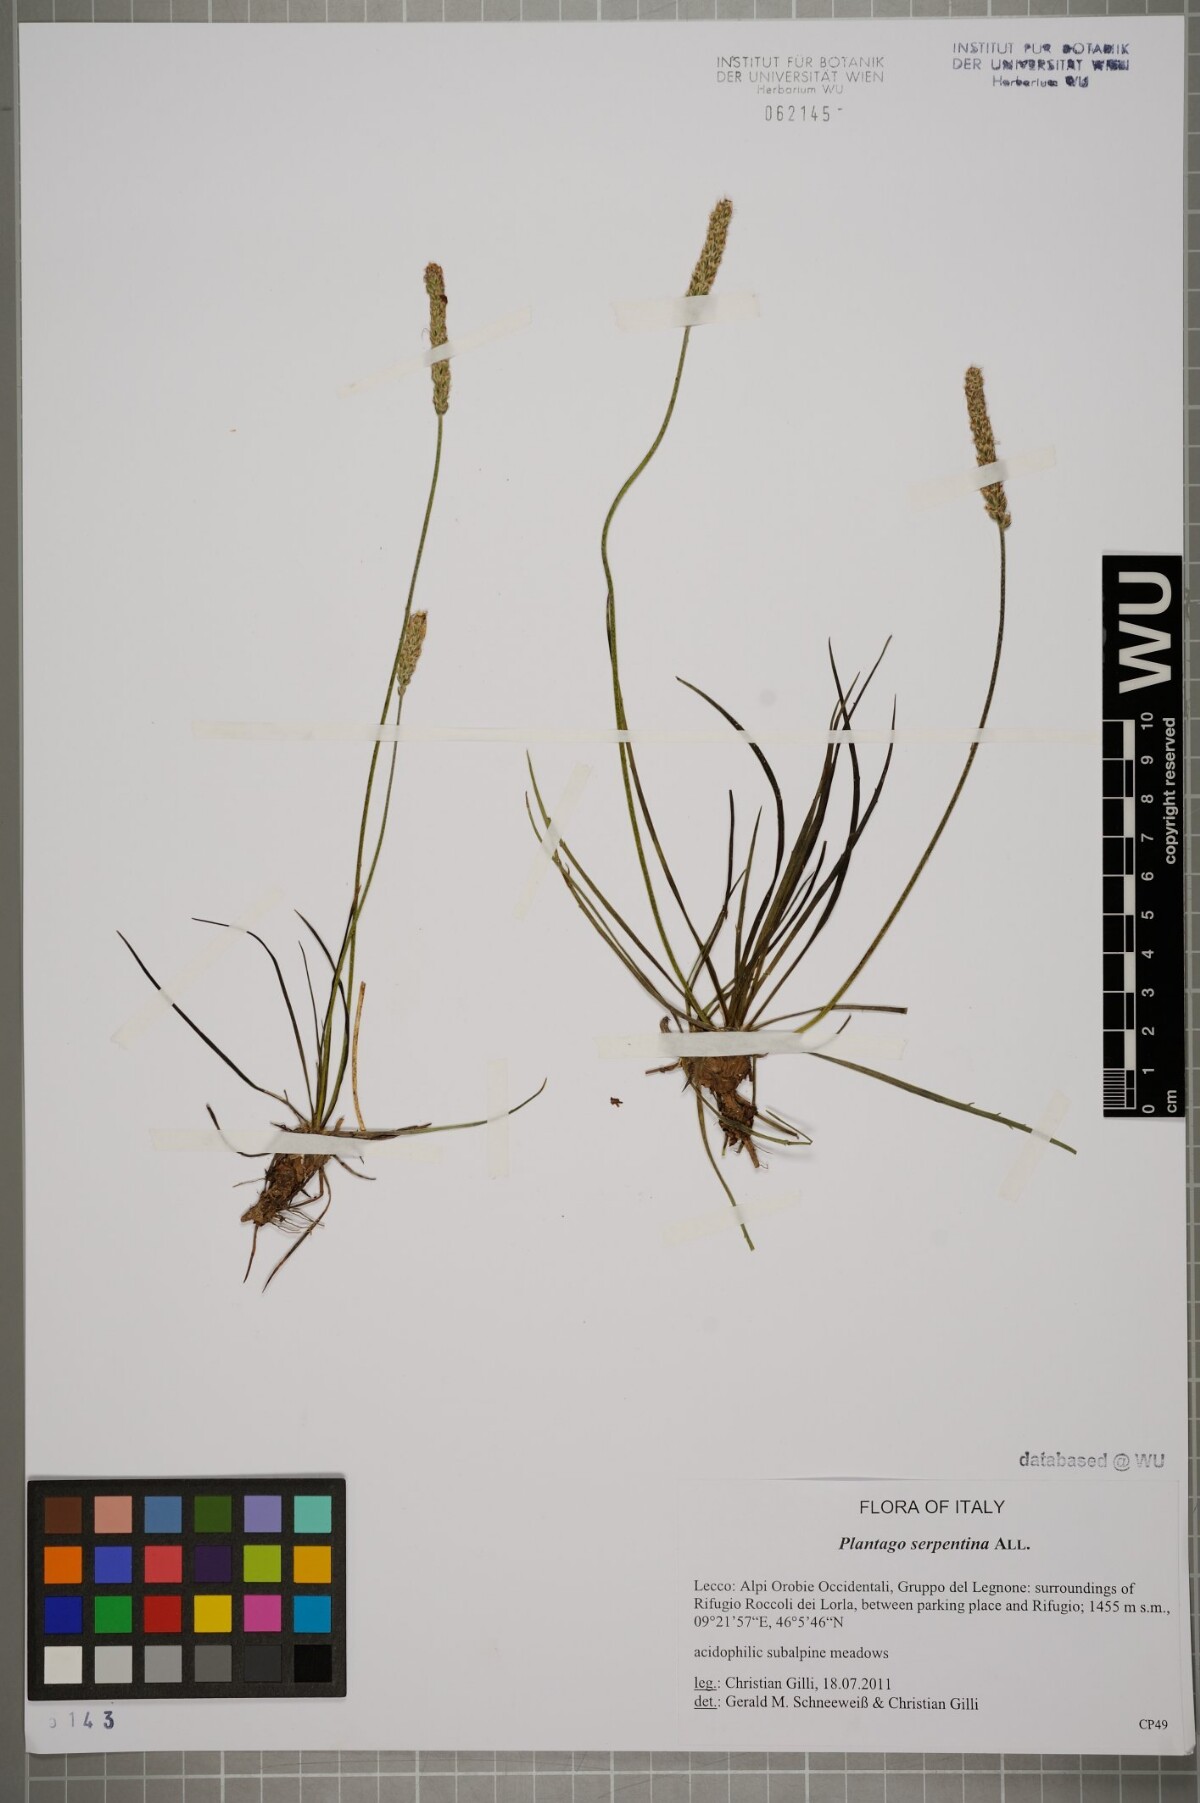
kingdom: Plantae
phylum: Tracheophyta
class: Magnoliopsida
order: Lamiales
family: Plantaginaceae
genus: Plantago
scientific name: Plantago strictissima
